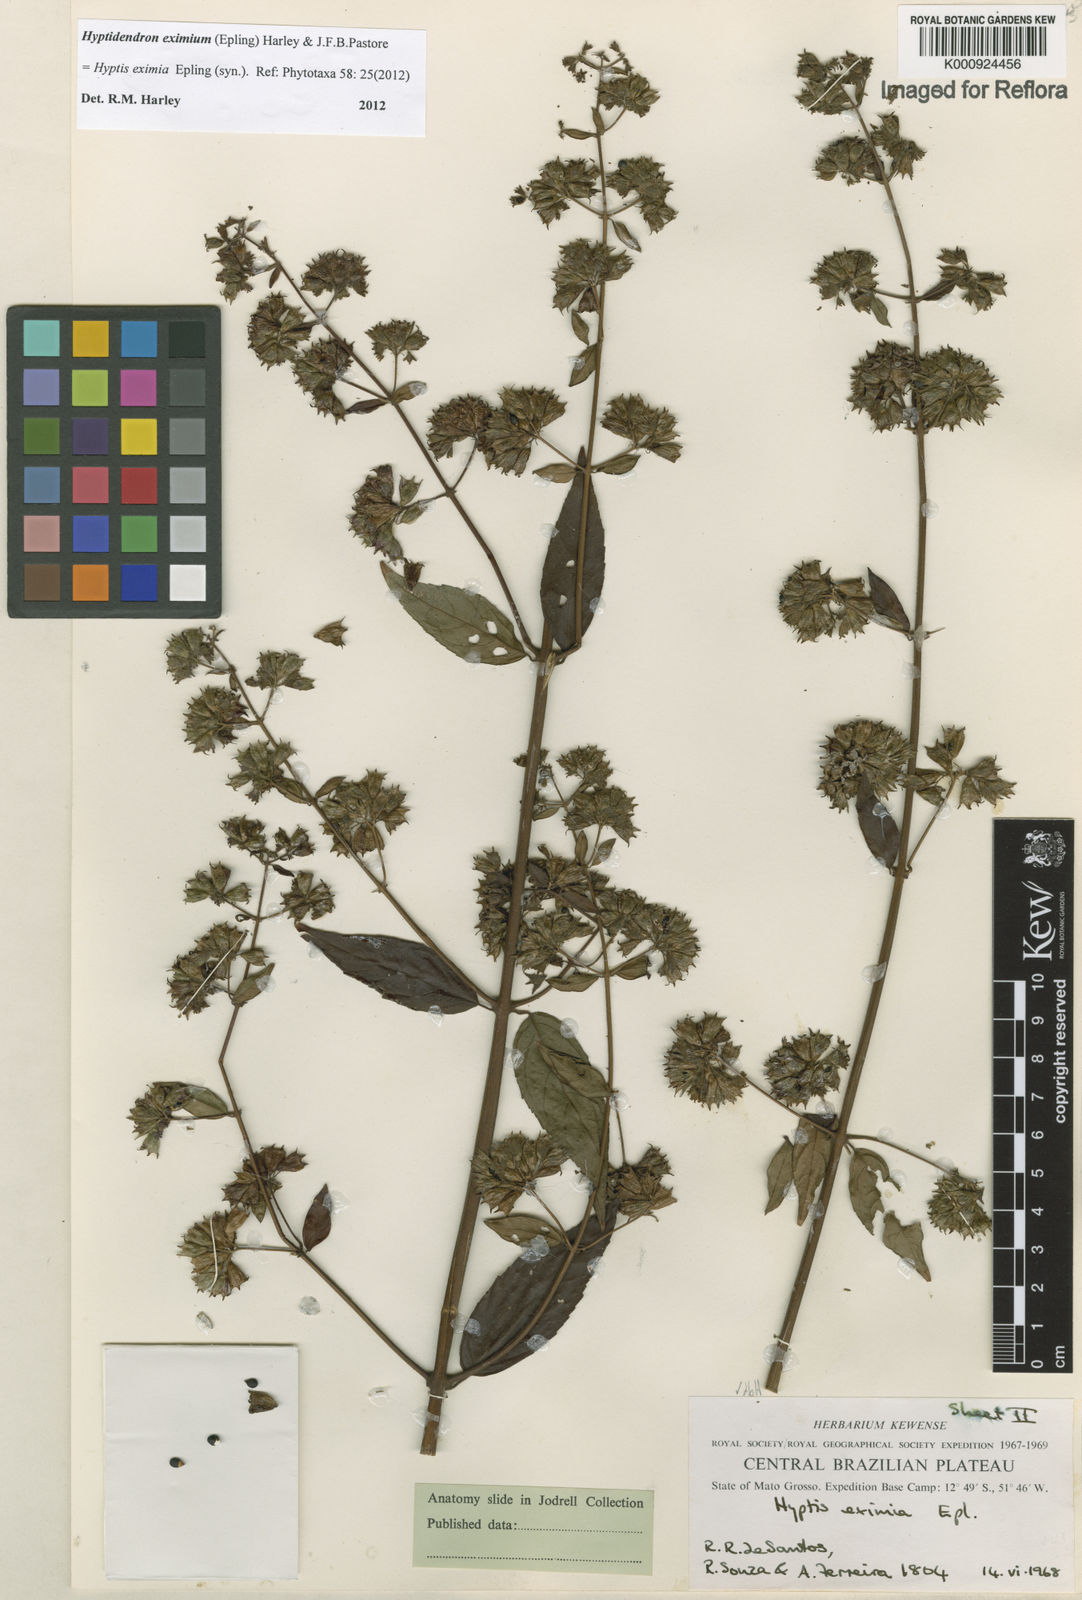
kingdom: Plantae
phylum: Tracheophyta
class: Magnoliopsida
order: Lamiales
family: Lamiaceae
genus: Hyptidendron
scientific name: Hyptidendron eximium
